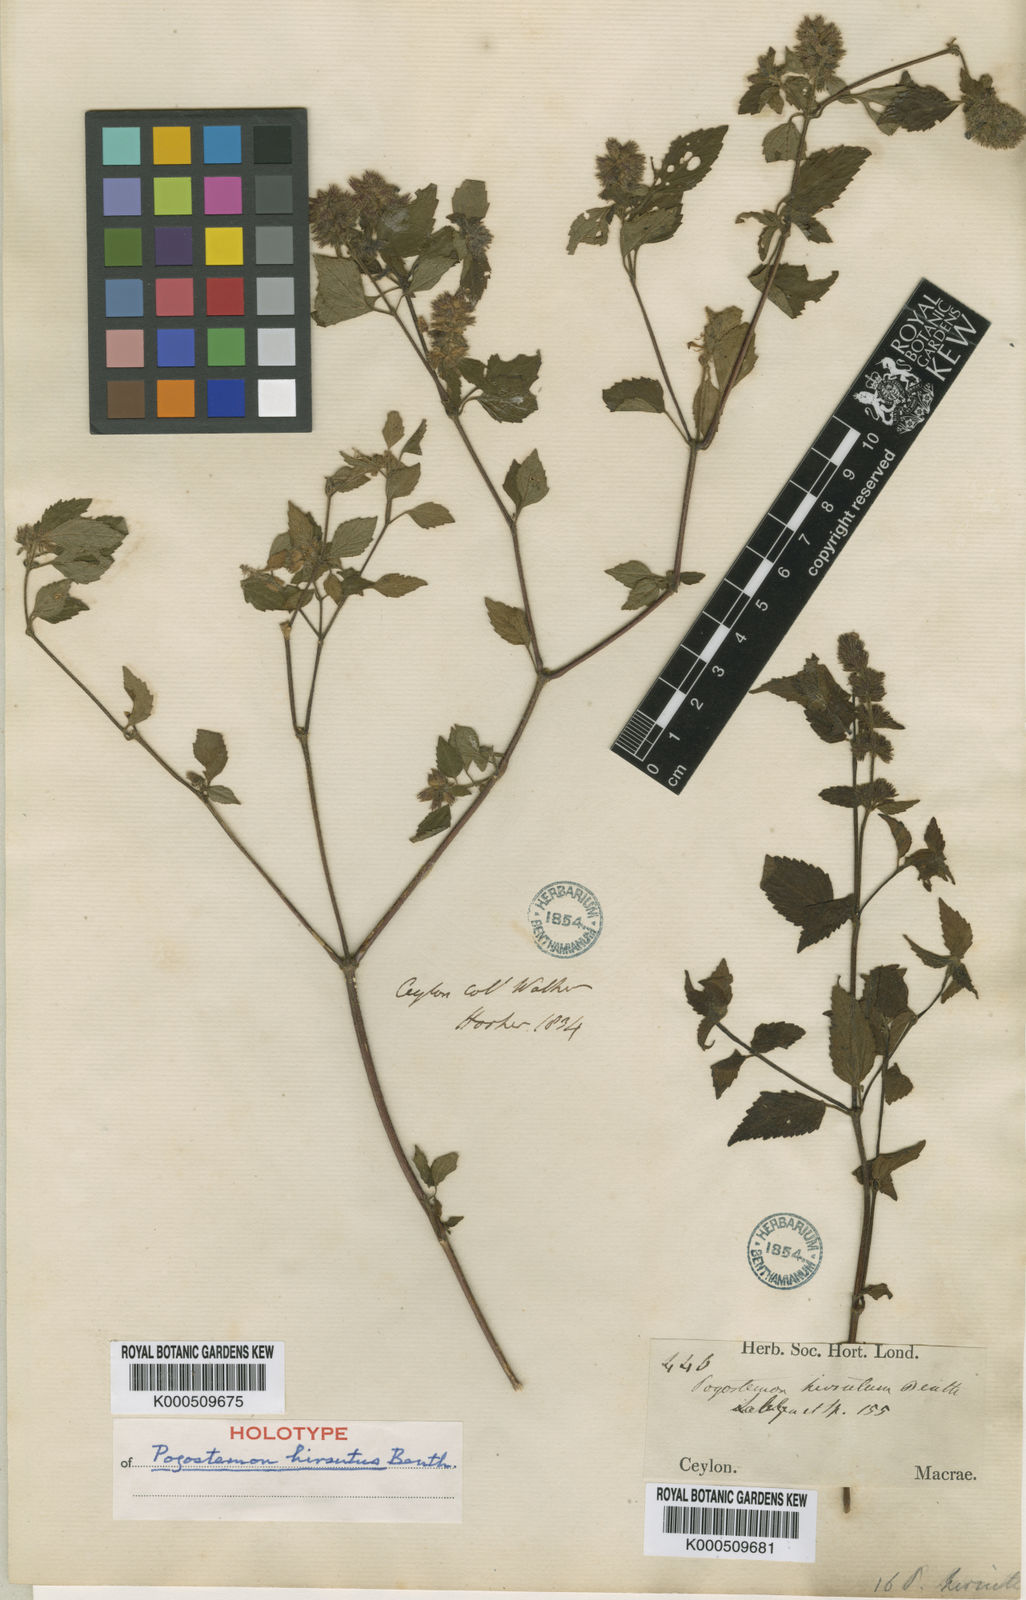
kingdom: Plantae
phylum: Tracheophyta
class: Magnoliopsida
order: Lamiales
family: Lamiaceae
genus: Pogostemon
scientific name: Pogostemon hirsutus
